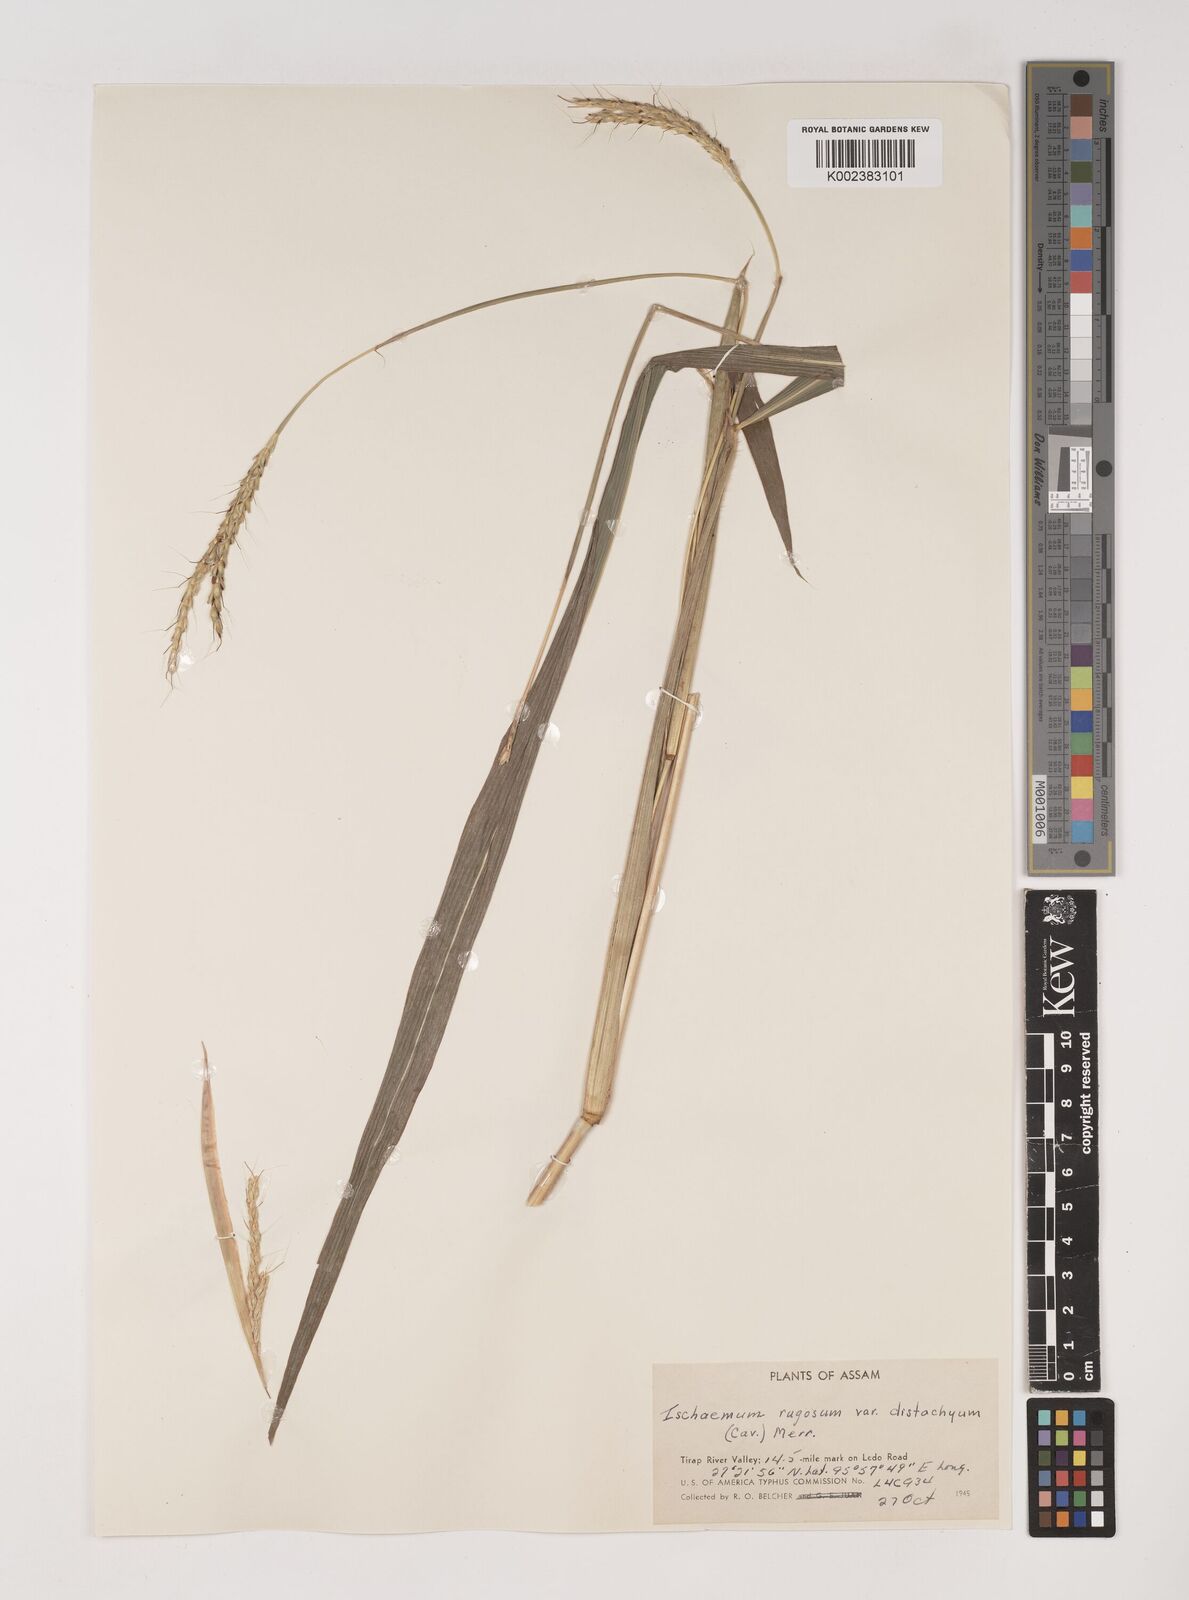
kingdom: Plantae
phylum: Tracheophyta
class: Liliopsida
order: Poales
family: Poaceae
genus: Ischaemum
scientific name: Ischaemum molle
